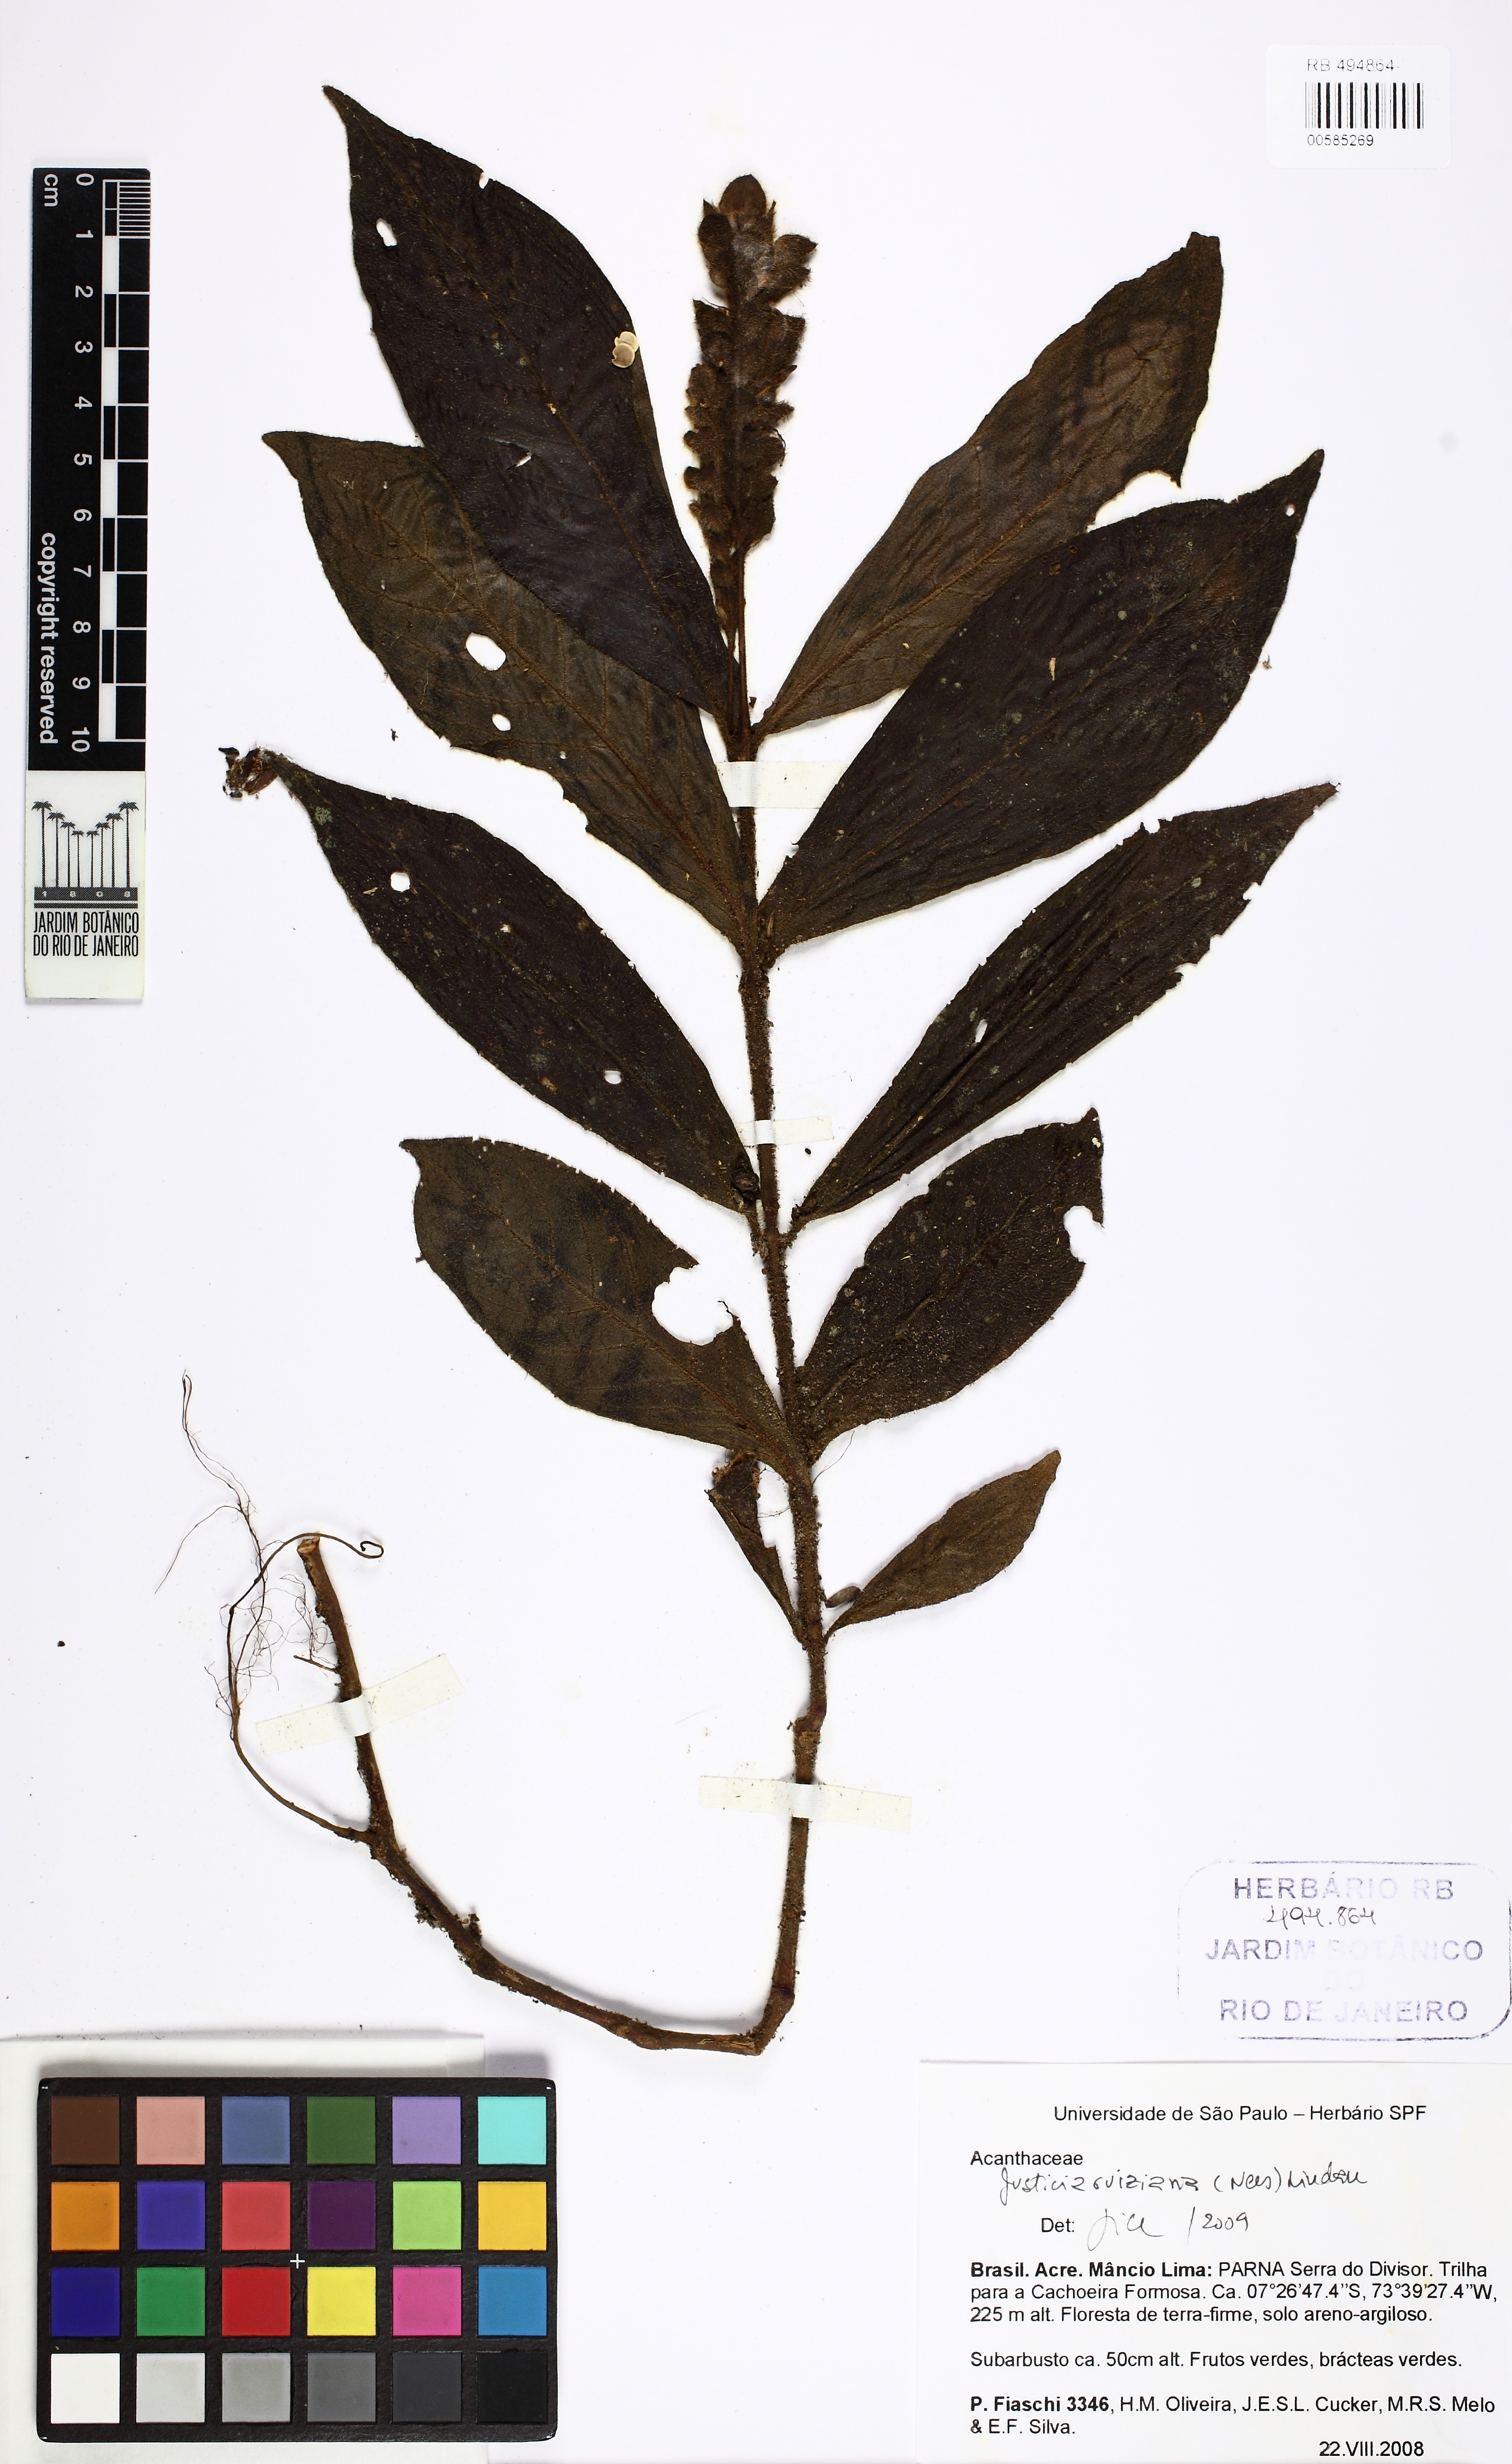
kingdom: Plantae
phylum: Tracheophyta
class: Magnoliopsida
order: Lamiales
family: Acanthaceae
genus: Justicia
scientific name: Justicia ruiziana
